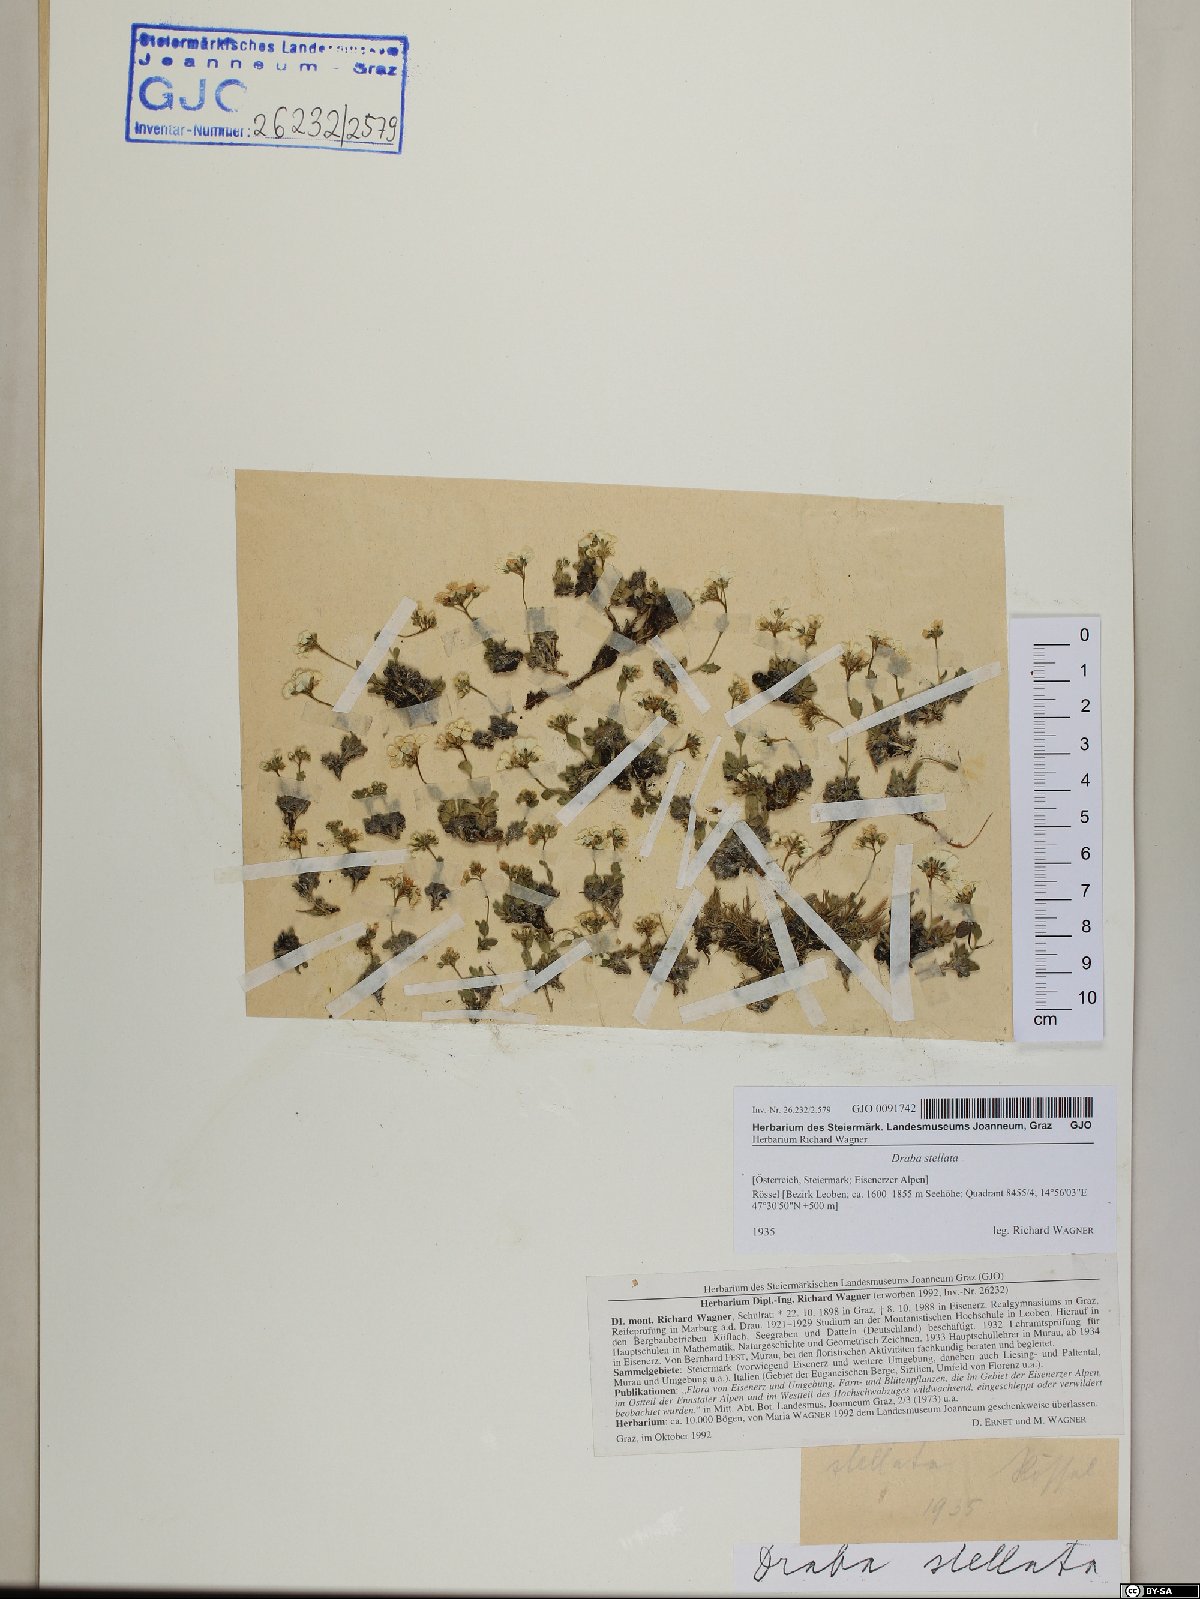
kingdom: Plantae
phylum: Tracheophyta
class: Magnoliopsida
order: Brassicales
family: Brassicaceae
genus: Draba
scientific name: Draba stellata
